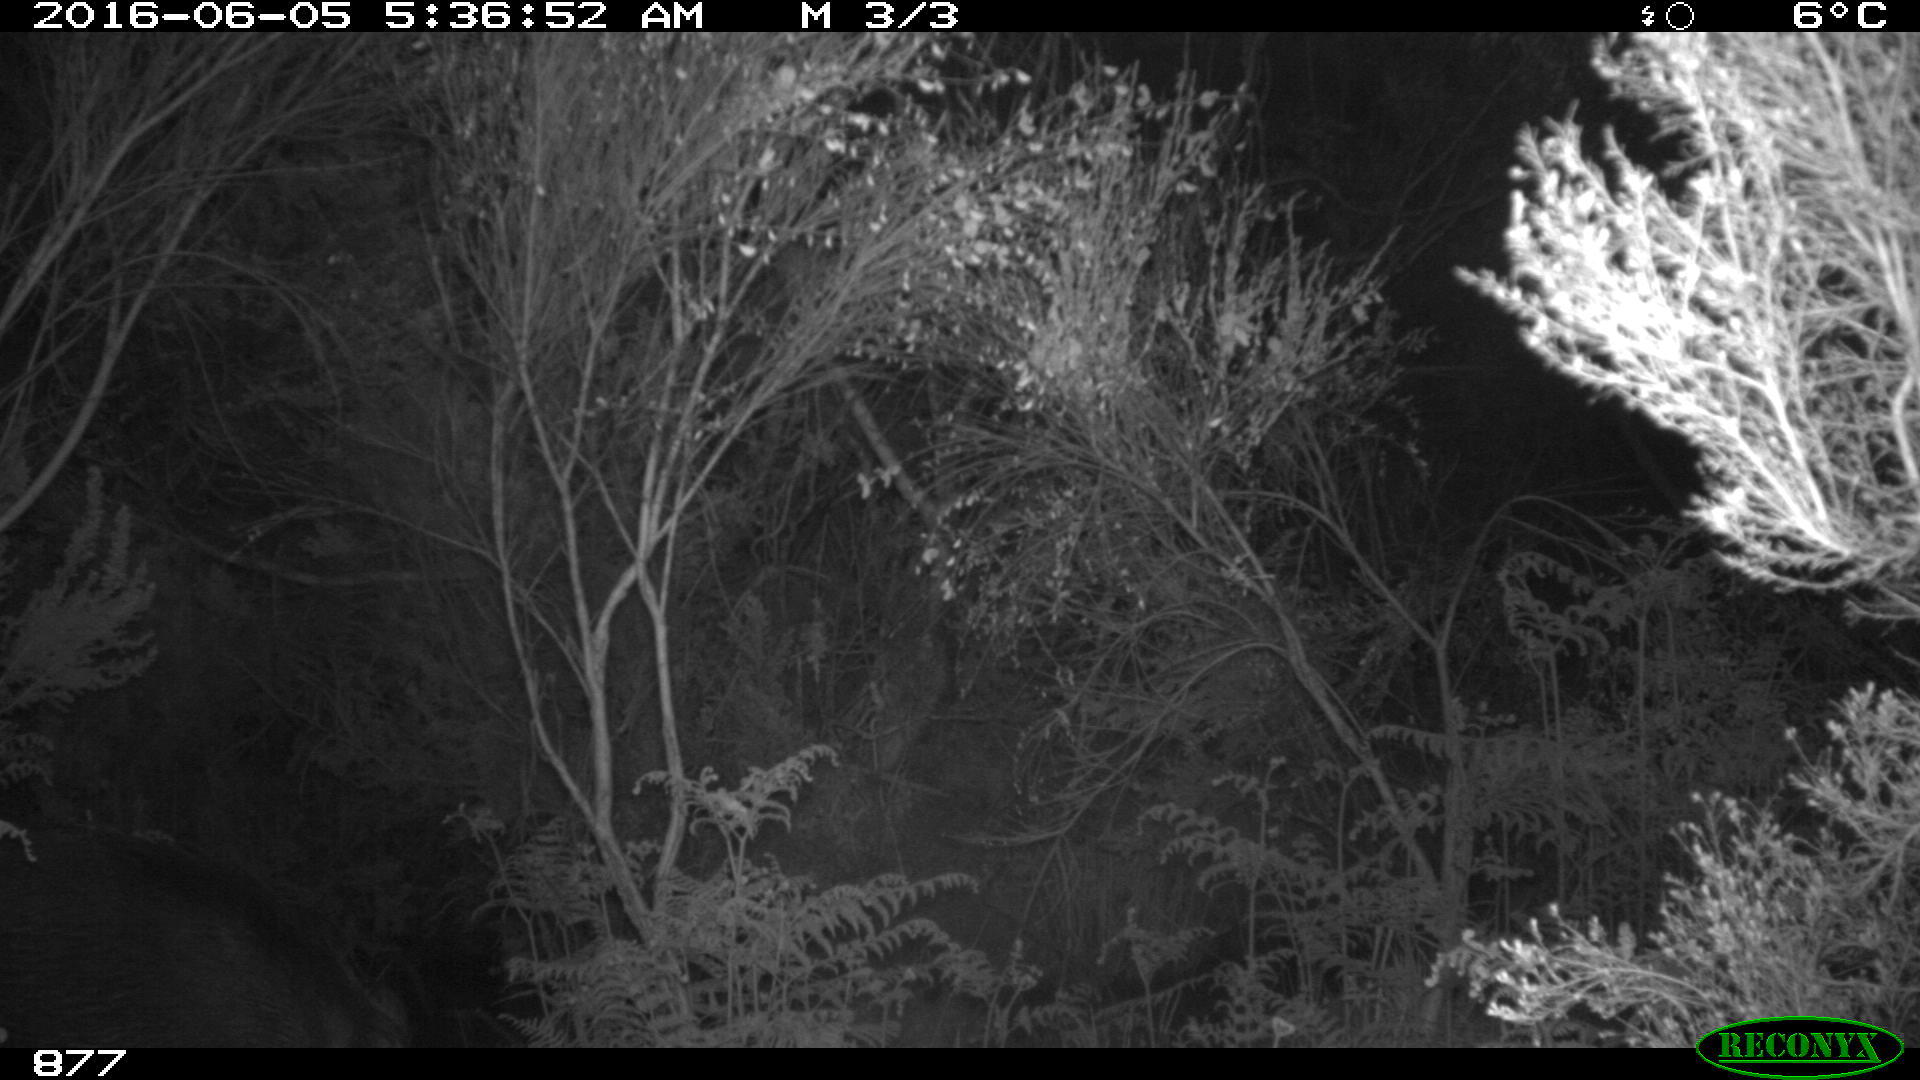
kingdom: Animalia
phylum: Chordata
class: Mammalia
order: Artiodactyla
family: Suidae
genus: Sus
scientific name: Sus scrofa
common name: Wild boar
